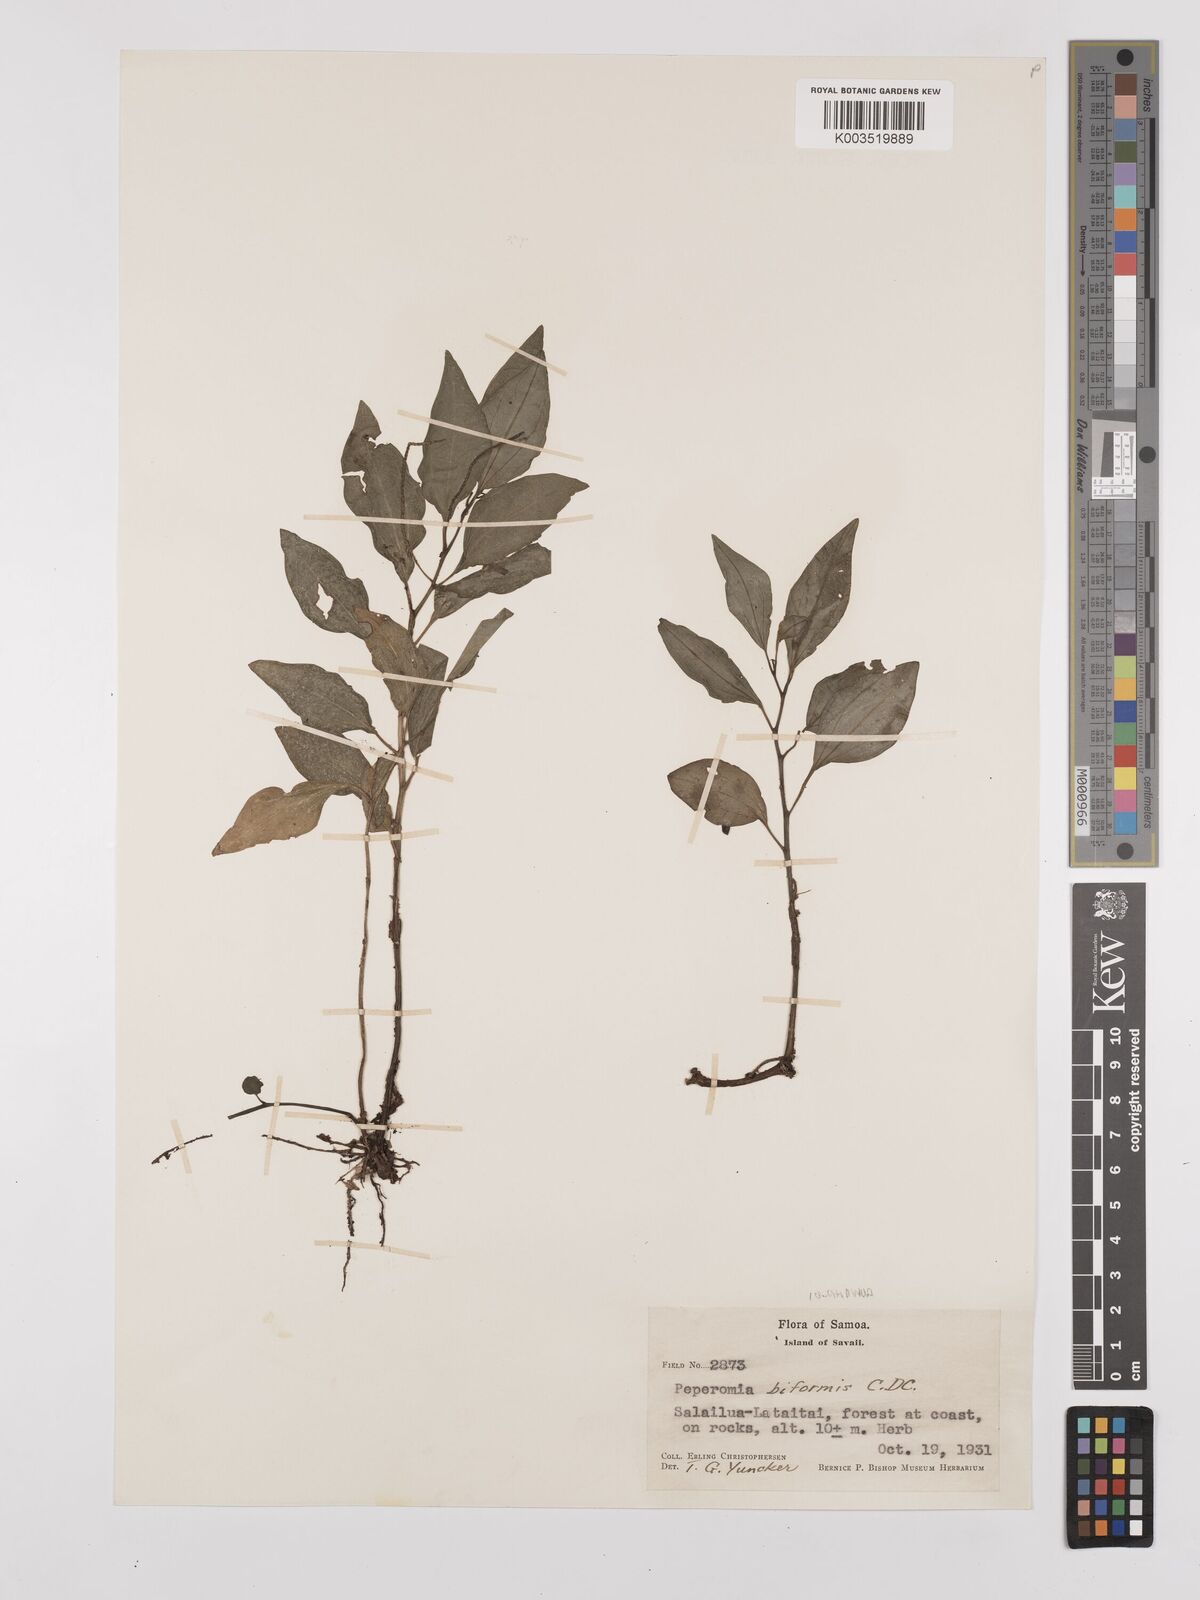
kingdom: Plantae
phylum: Tracheophyta
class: Magnoliopsida
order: Piperales
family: Piperaceae
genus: Peperomia
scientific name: Peperomia oahuensis
